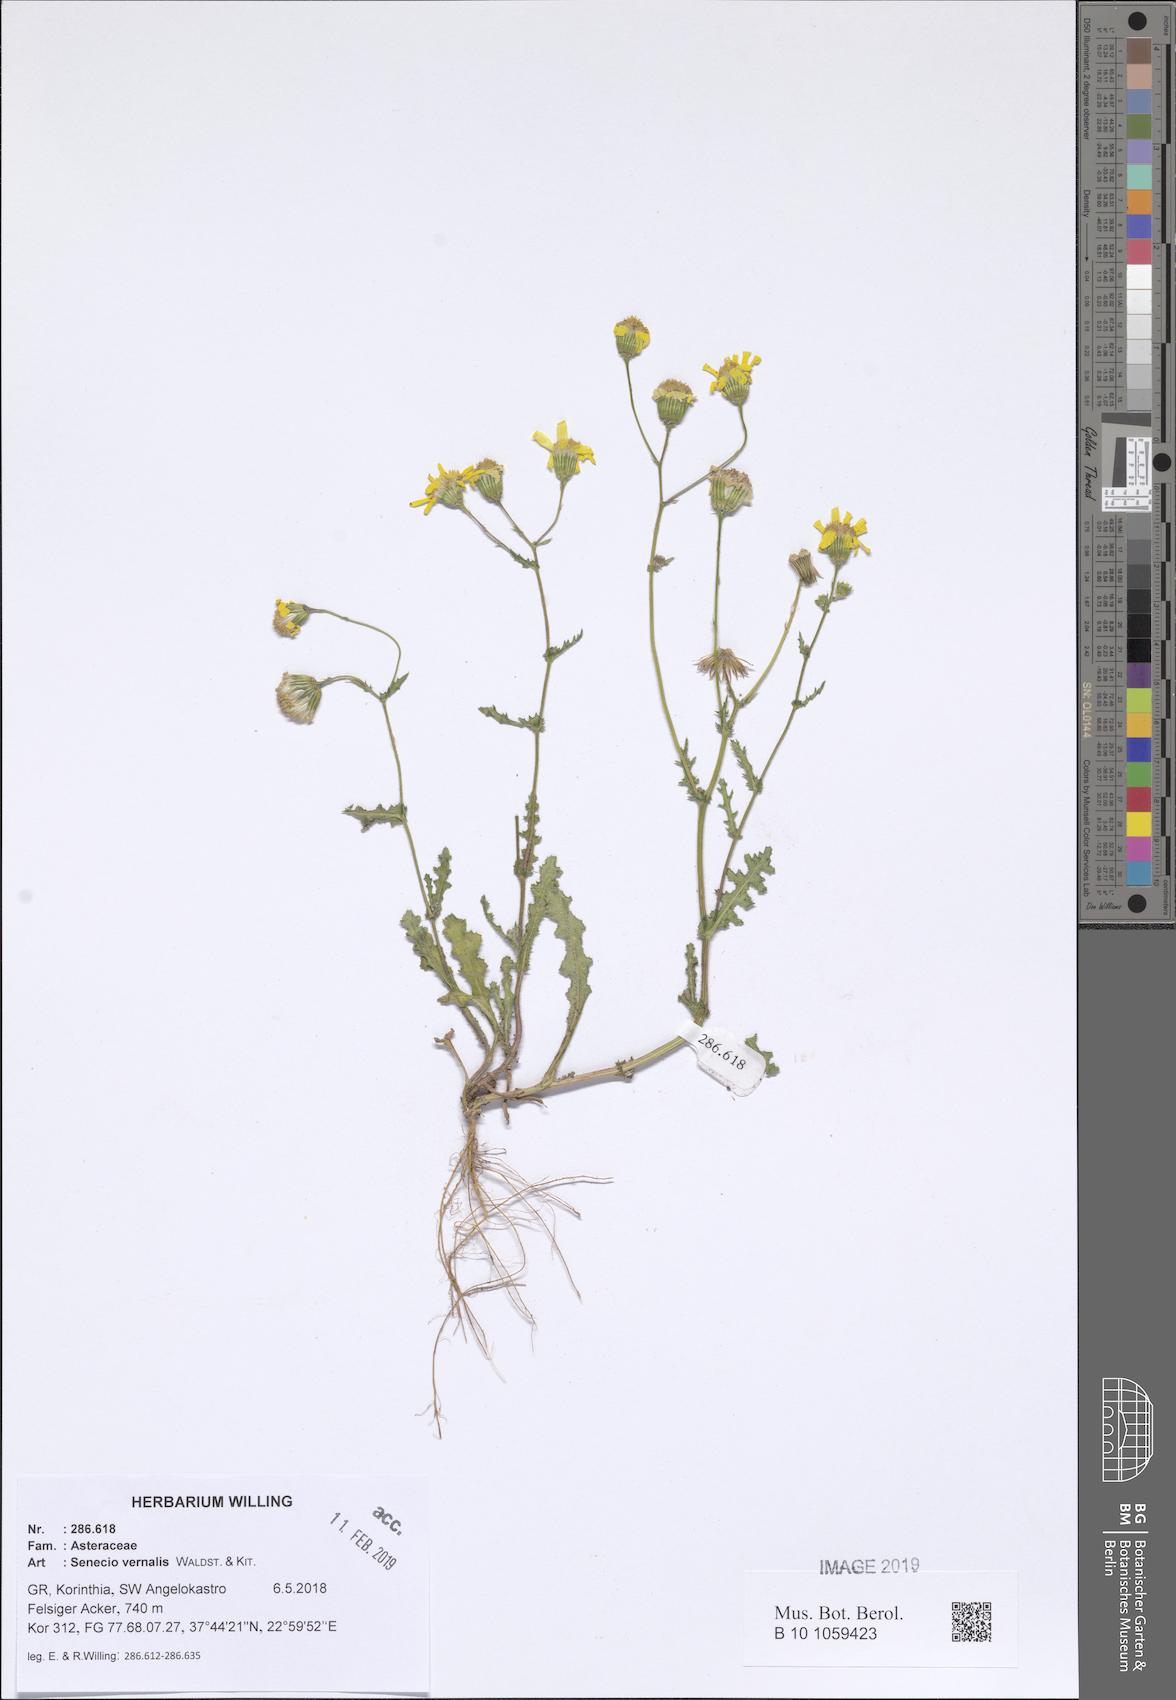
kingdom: Plantae
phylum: Tracheophyta
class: Magnoliopsida
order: Asterales
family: Asteraceae
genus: Senecio
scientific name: Senecio vernalis
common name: Eastern groundsel
